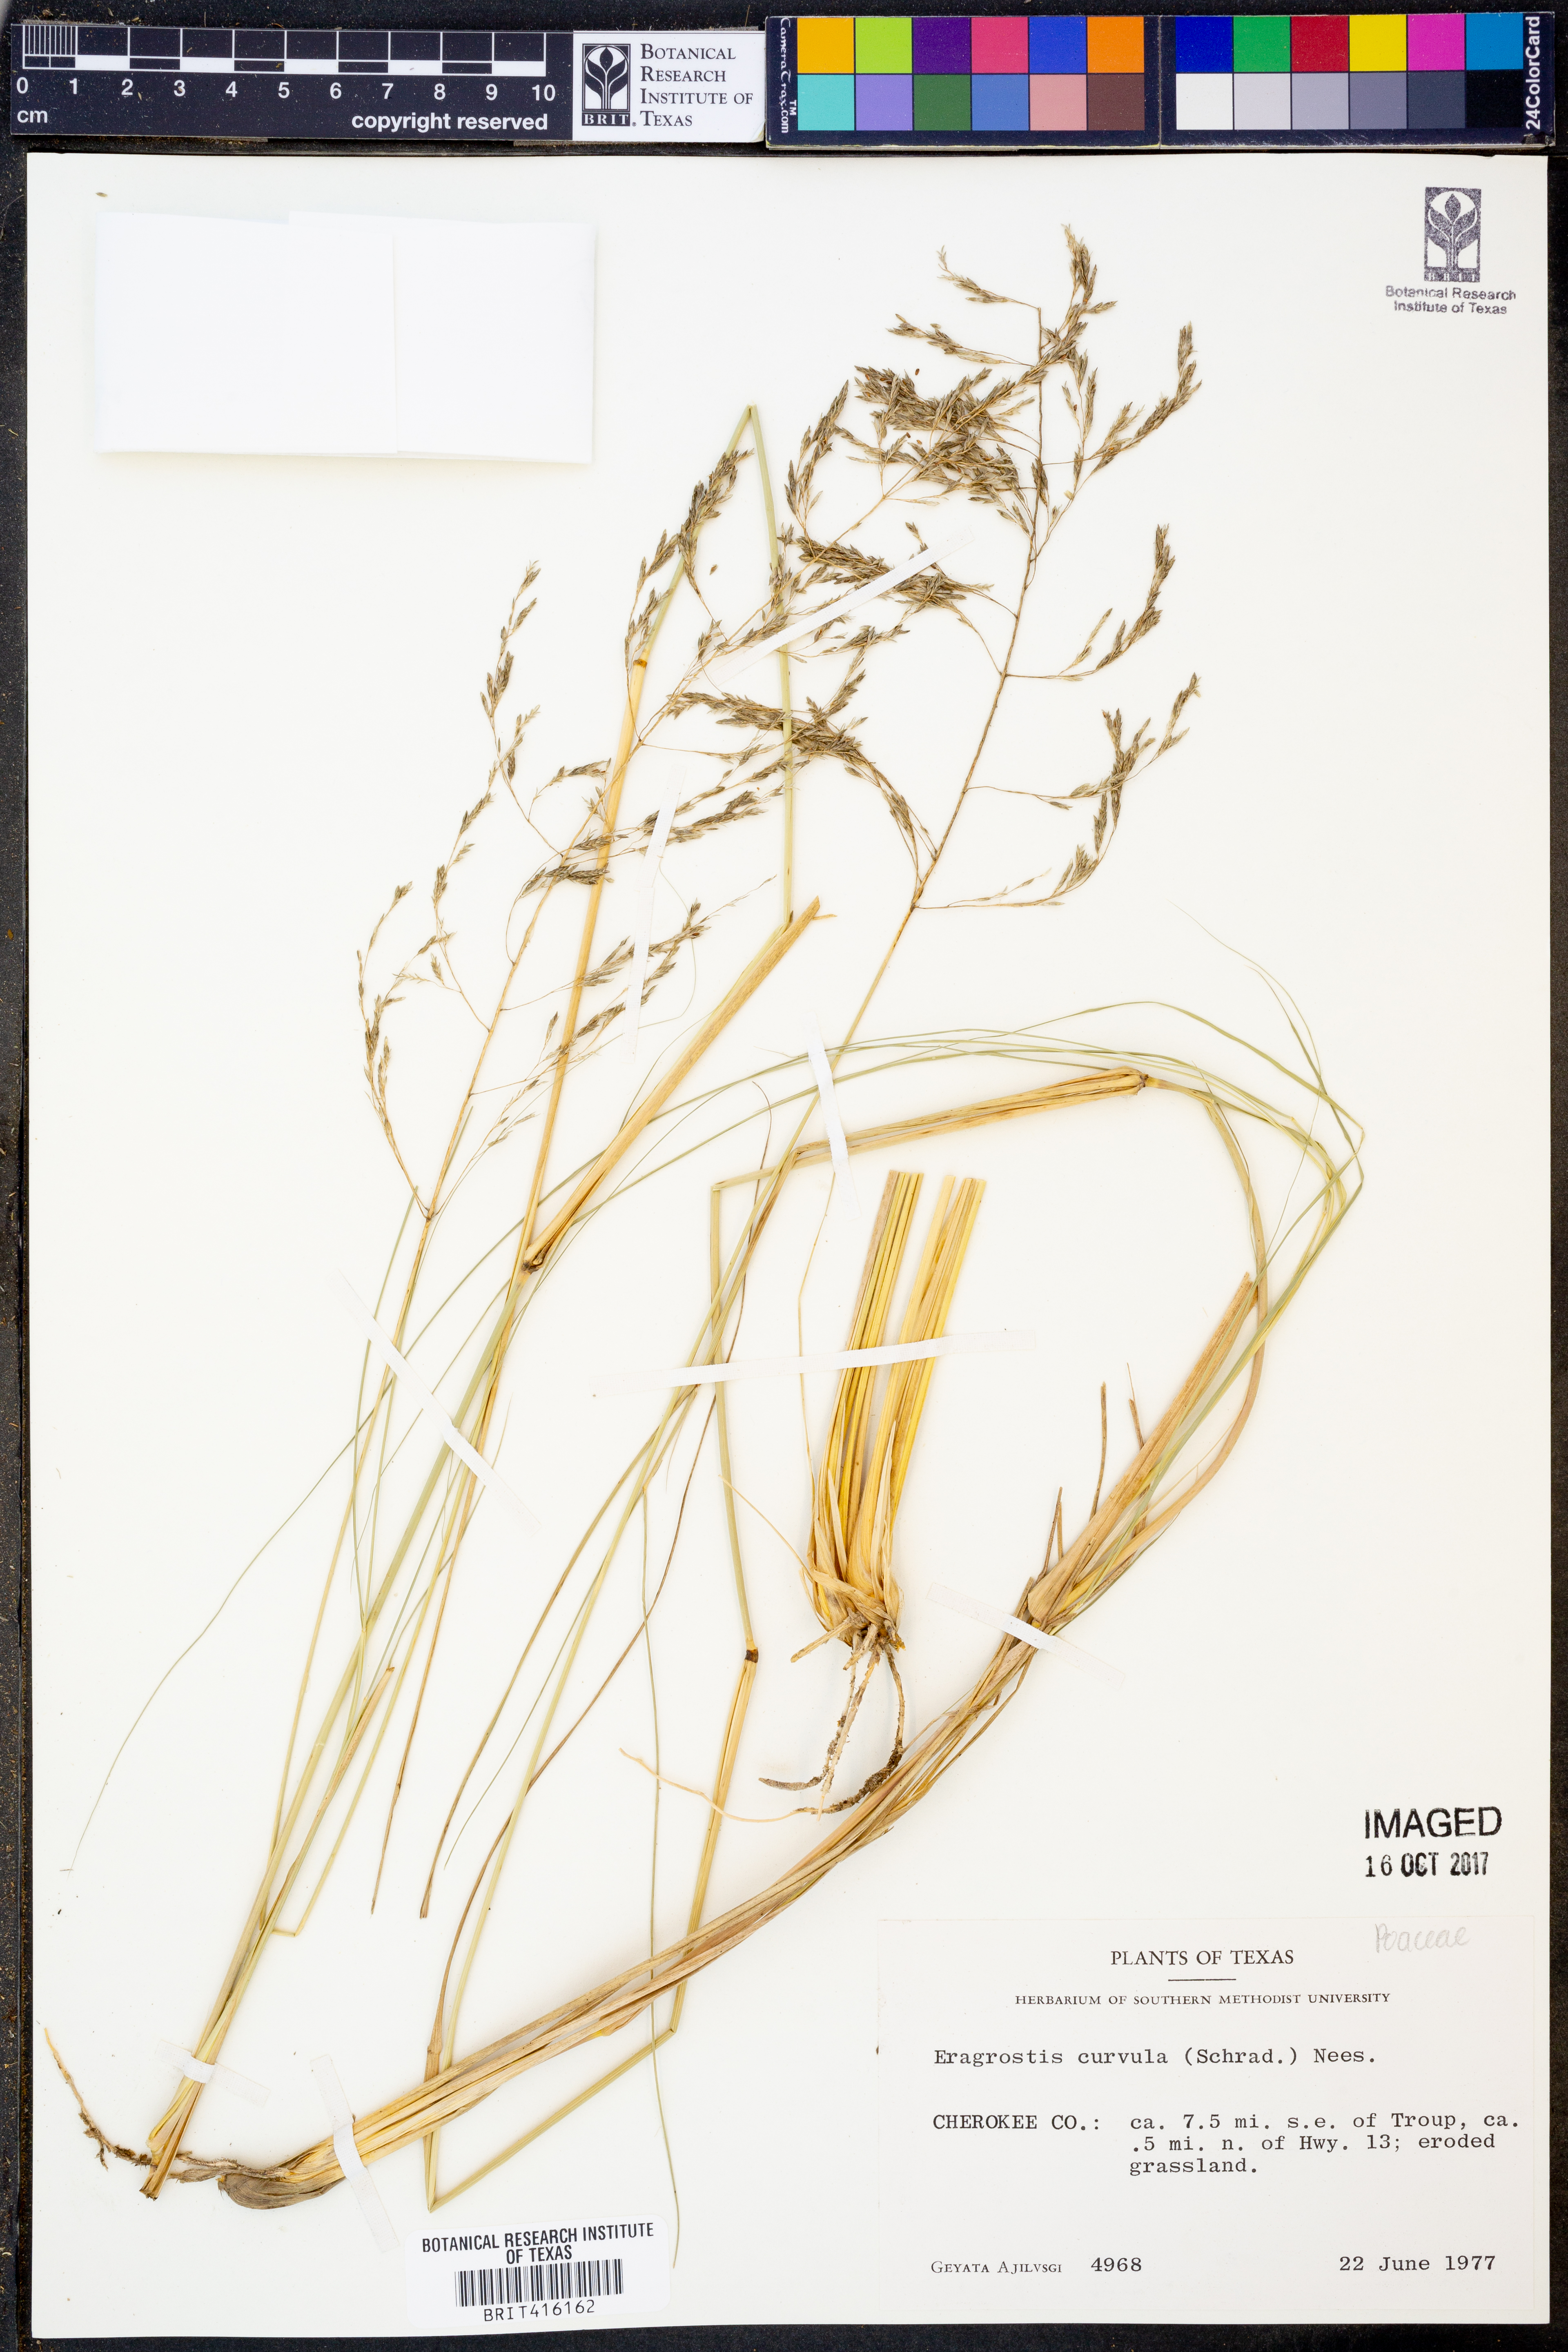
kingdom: Plantae
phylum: Tracheophyta
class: Liliopsida
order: Poales
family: Poaceae
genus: Eragrostis
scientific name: Eragrostis curvula
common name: African love-grass
